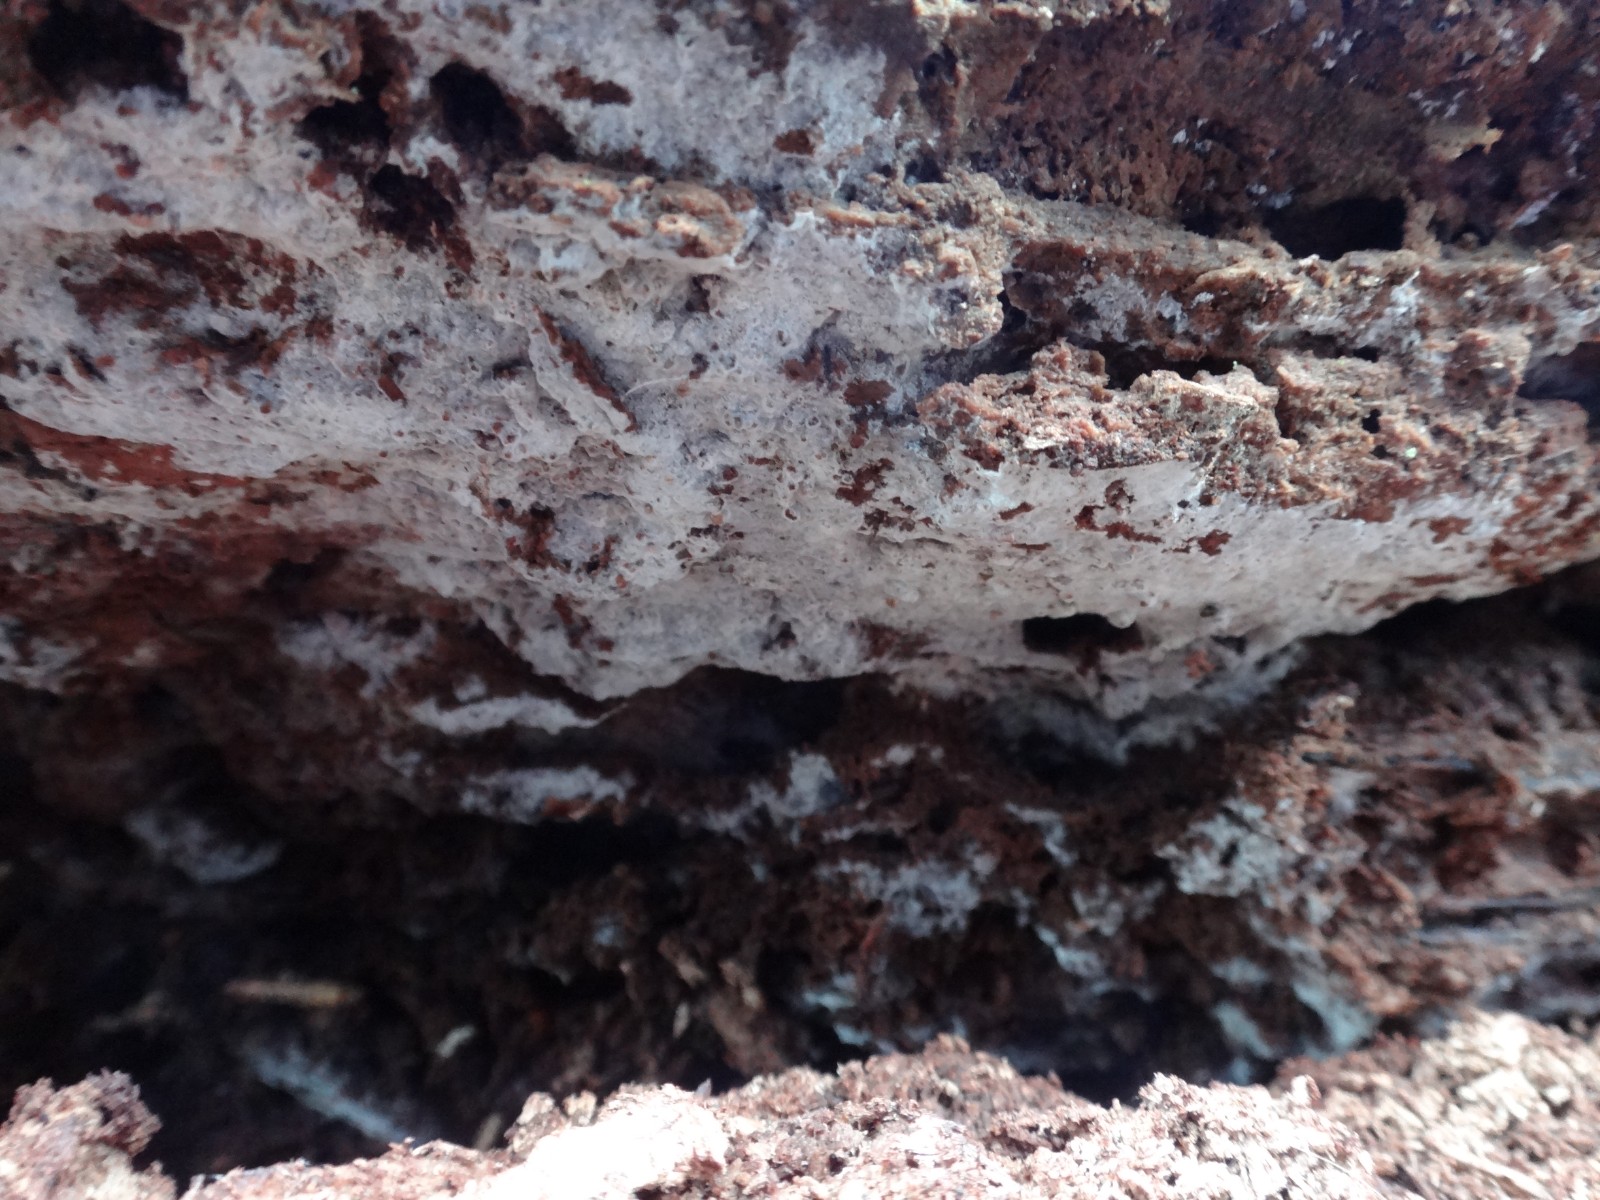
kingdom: Fungi
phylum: Basidiomycota
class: Agaricomycetes
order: Cantharellales
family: Botryobasidiaceae
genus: Botryobasidium
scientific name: Botryobasidium vagum
